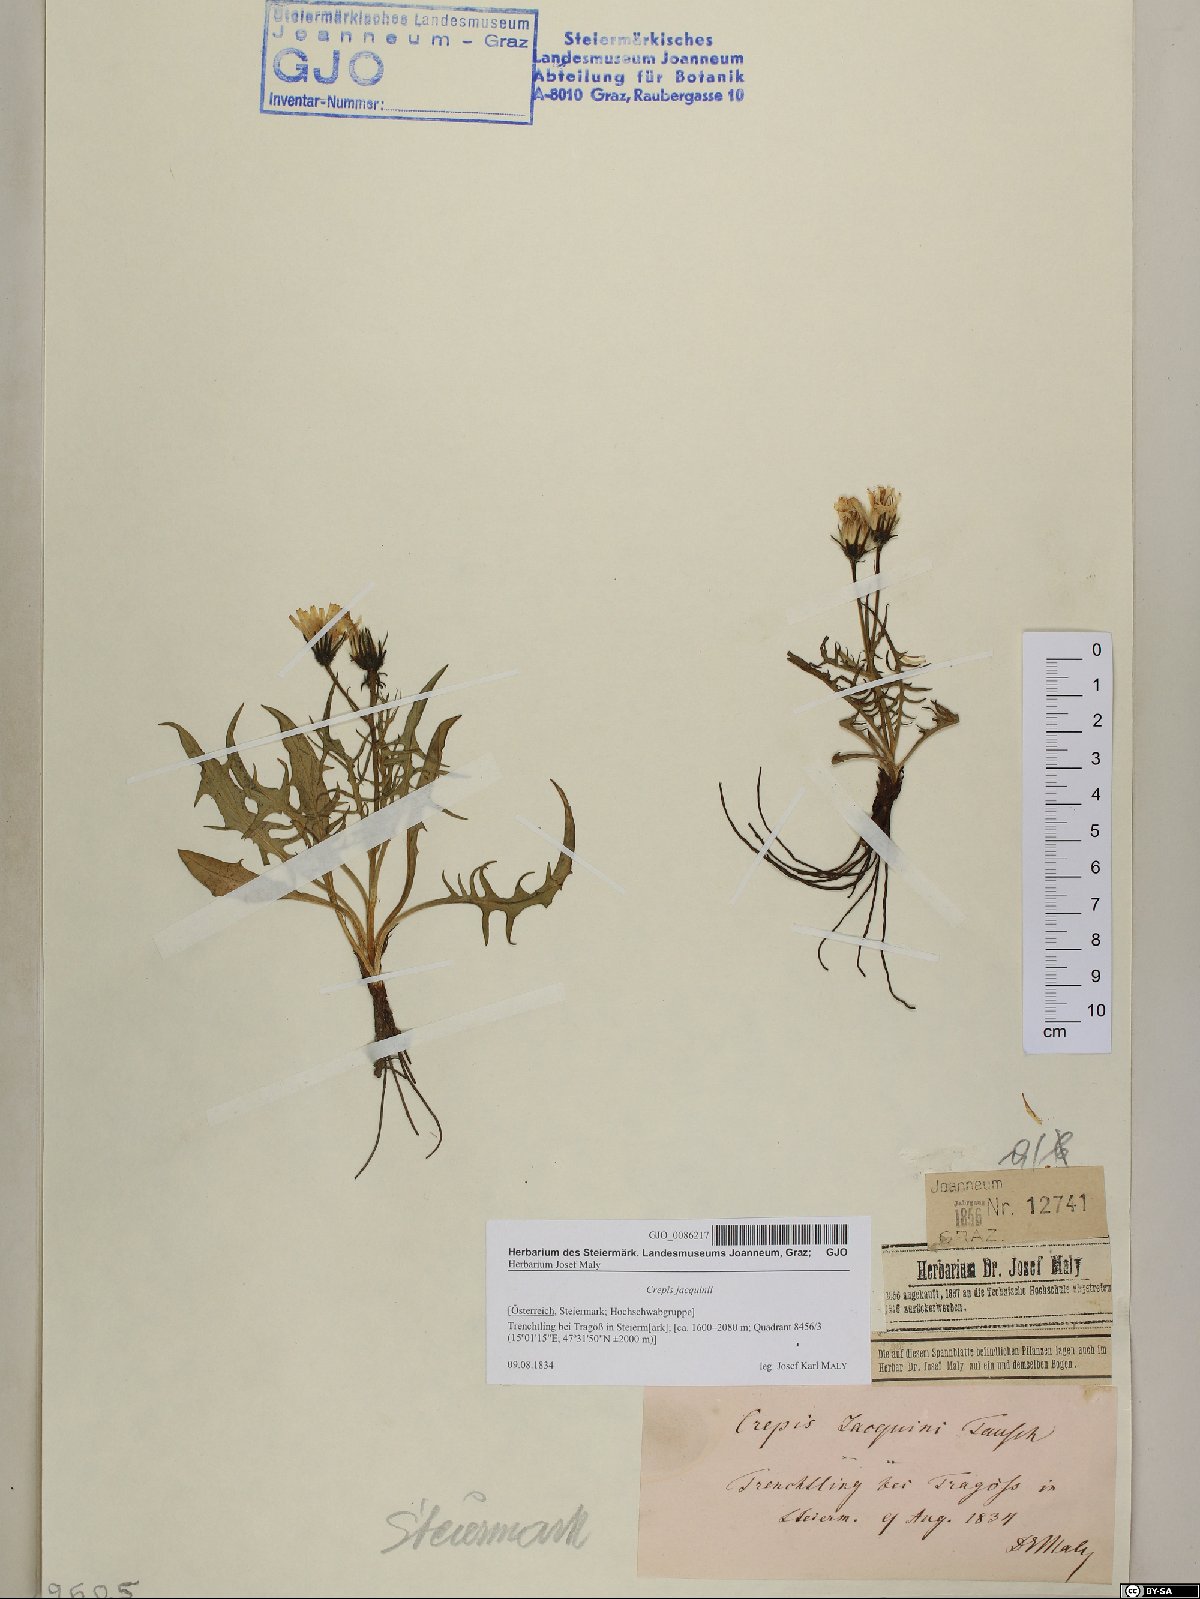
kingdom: Plantae
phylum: Tracheophyta
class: Magnoliopsida
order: Asterales
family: Asteraceae
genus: Crepis
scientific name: Crepis jacquinii
